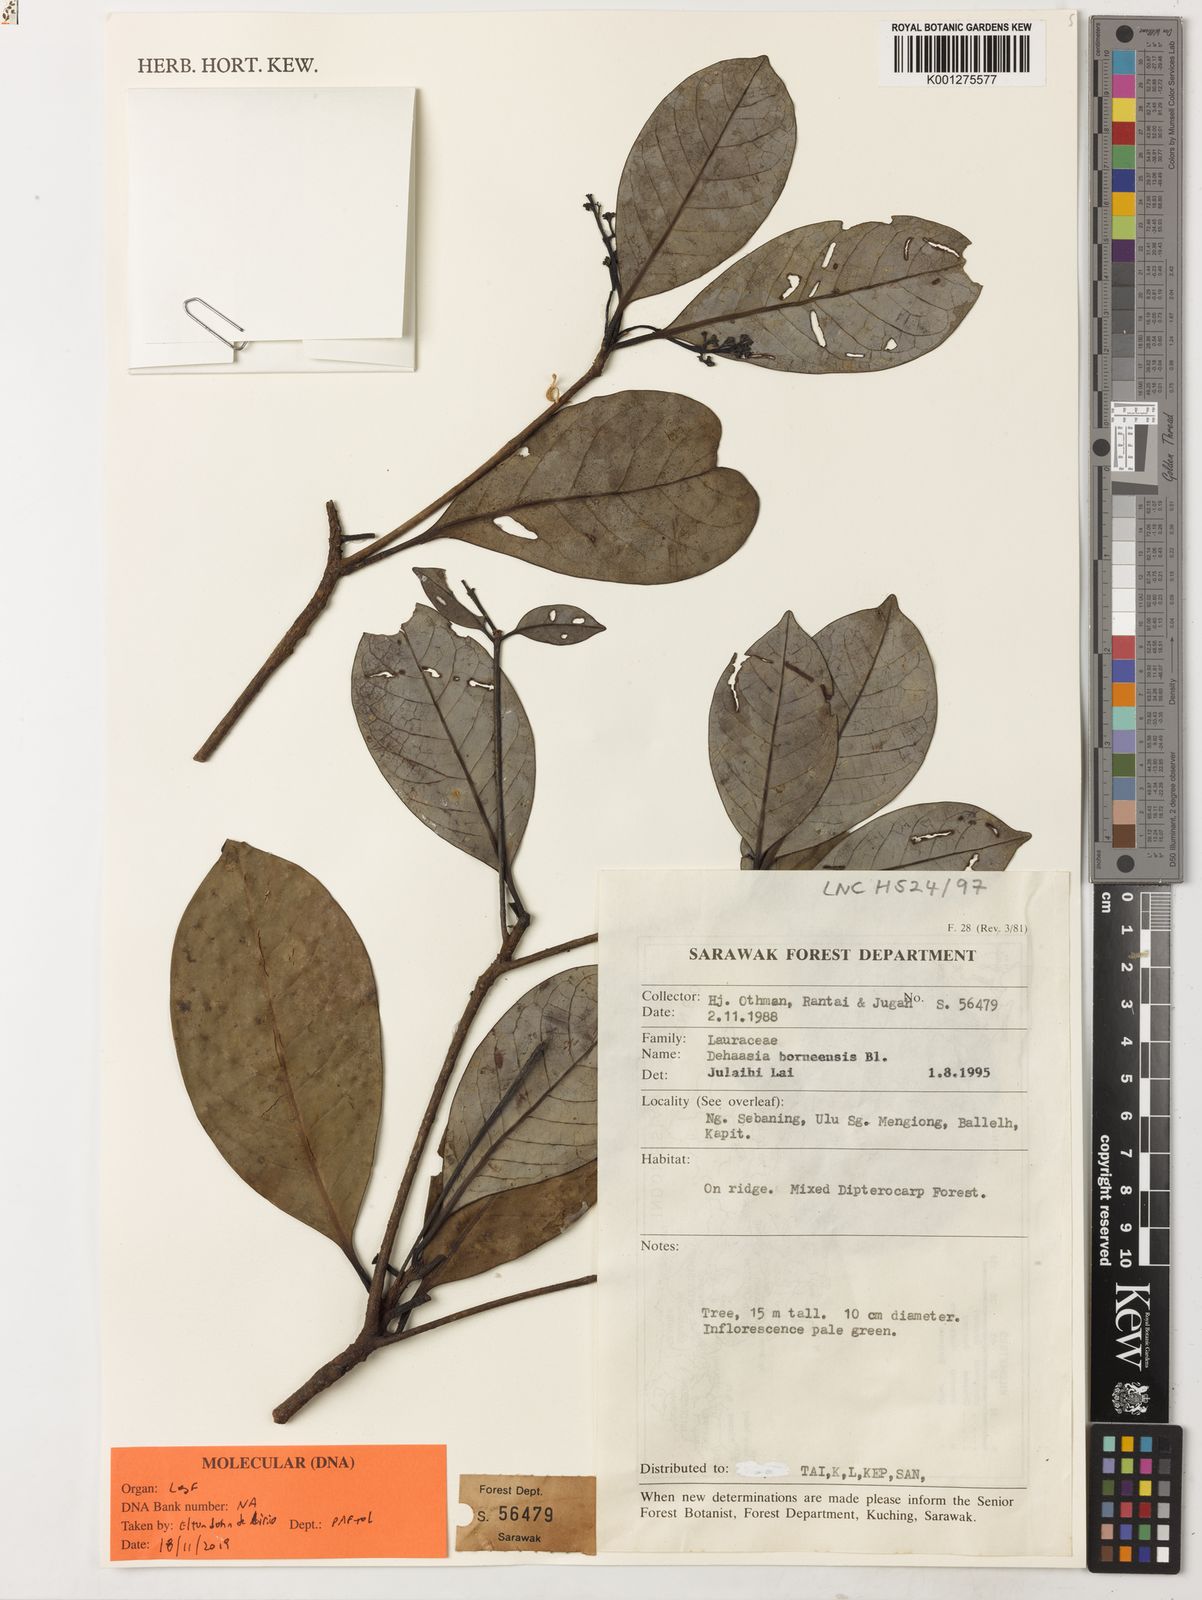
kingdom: Plantae
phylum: Tracheophyta
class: Magnoliopsida
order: Laurales
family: Lauraceae
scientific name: Lauraceae
